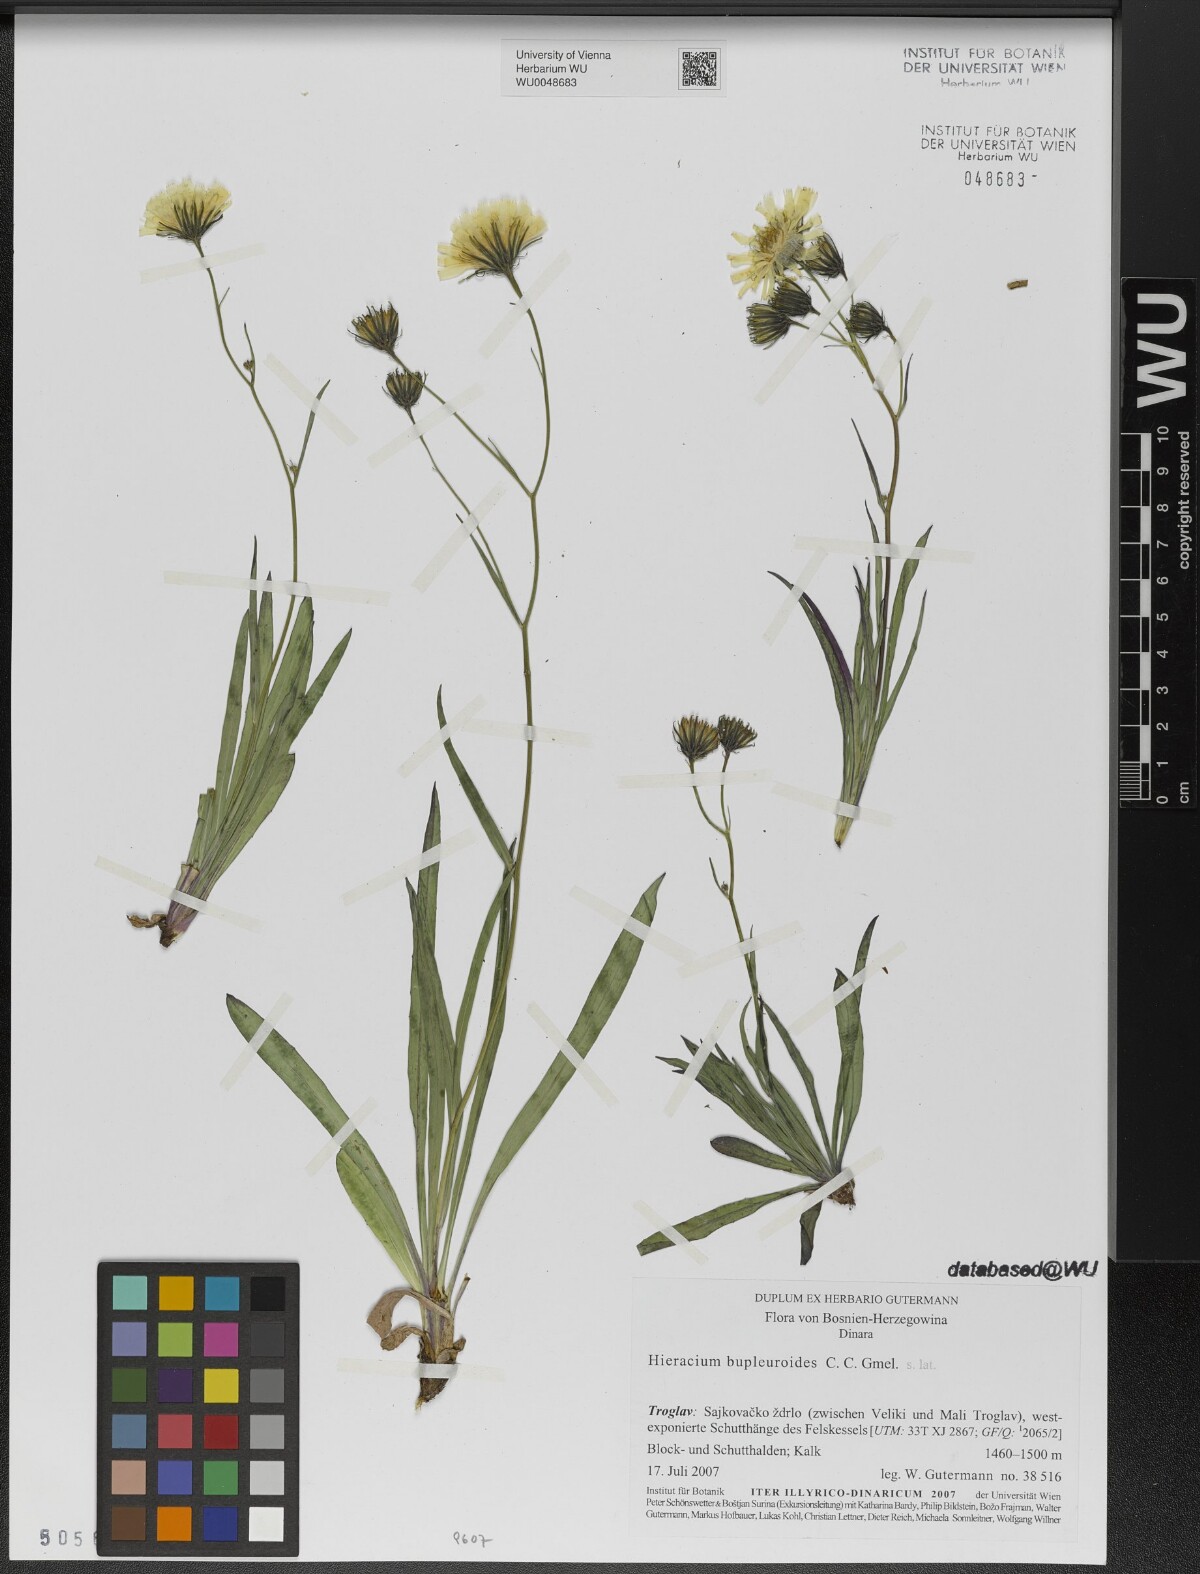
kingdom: Plantae
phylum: Tracheophyta
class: Magnoliopsida
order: Asterales
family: Asteraceae
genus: Hieracium
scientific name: Hieracium bupleuroides
